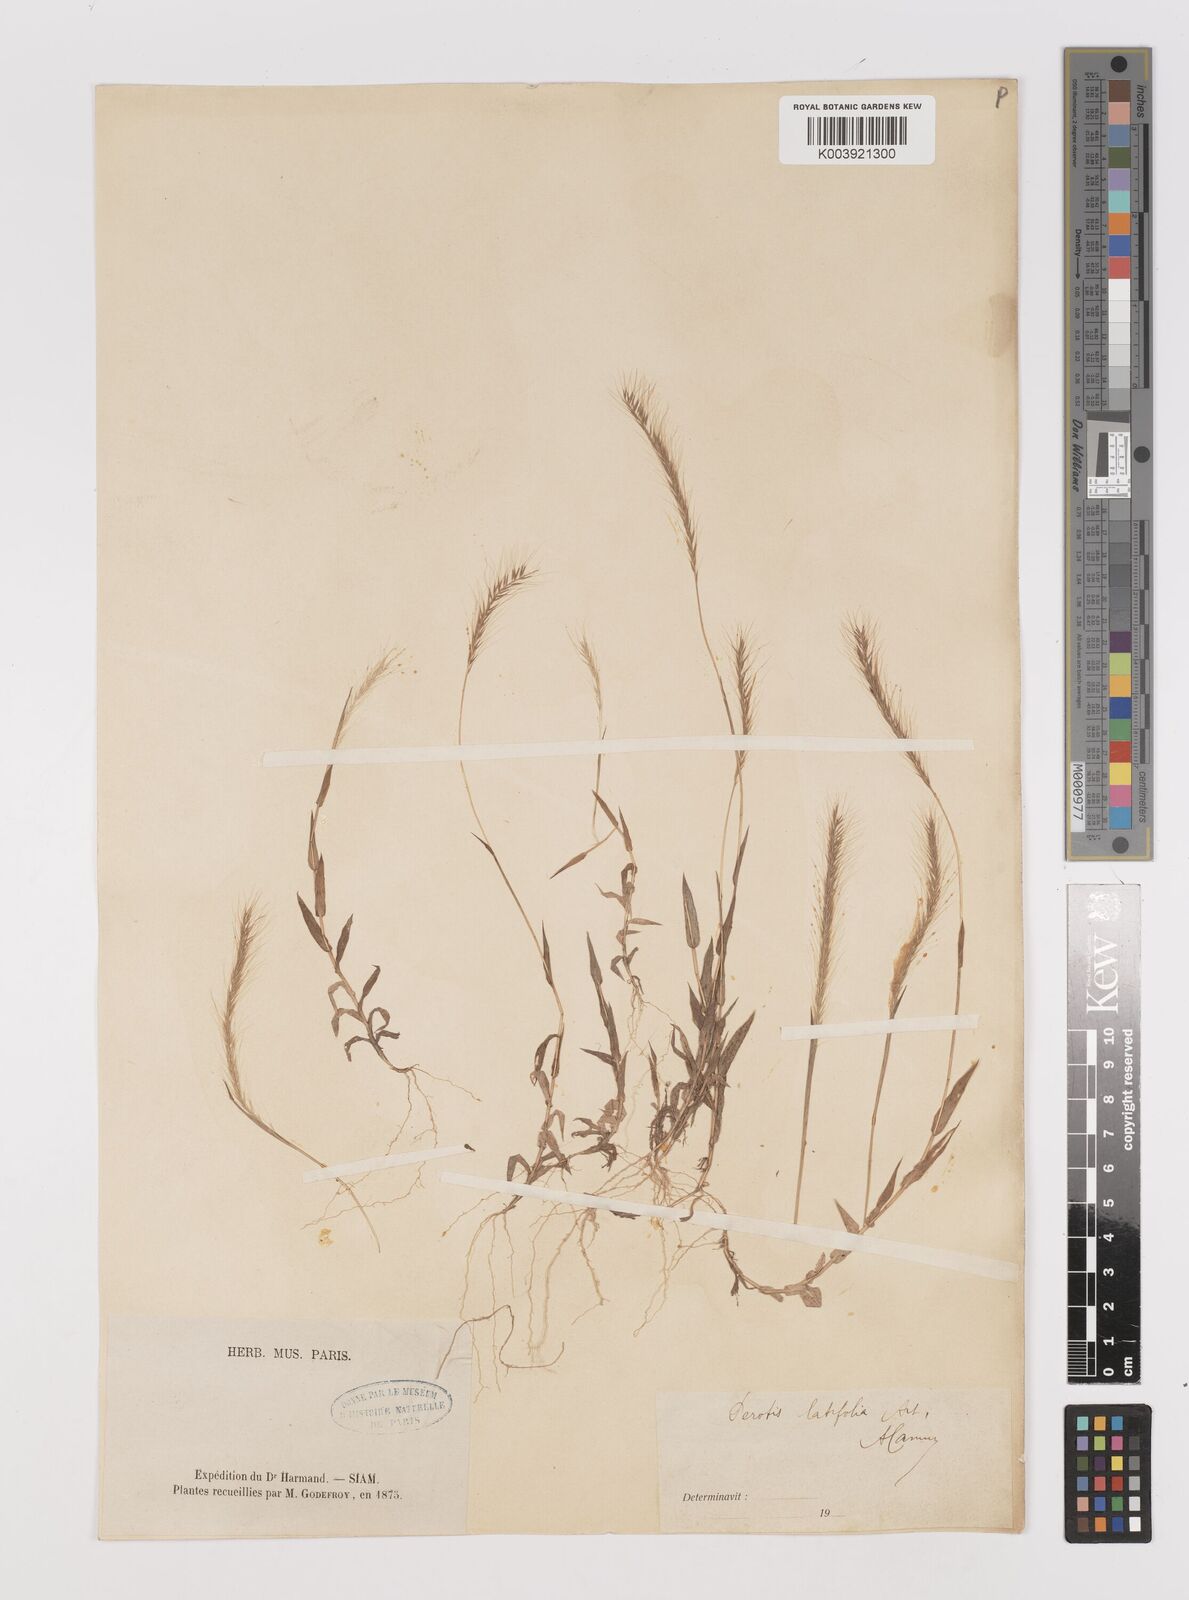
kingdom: Plantae
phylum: Tracheophyta
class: Liliopsida
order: Poales
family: Poaceae
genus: Perotis
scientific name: Perotis hordeiformis
